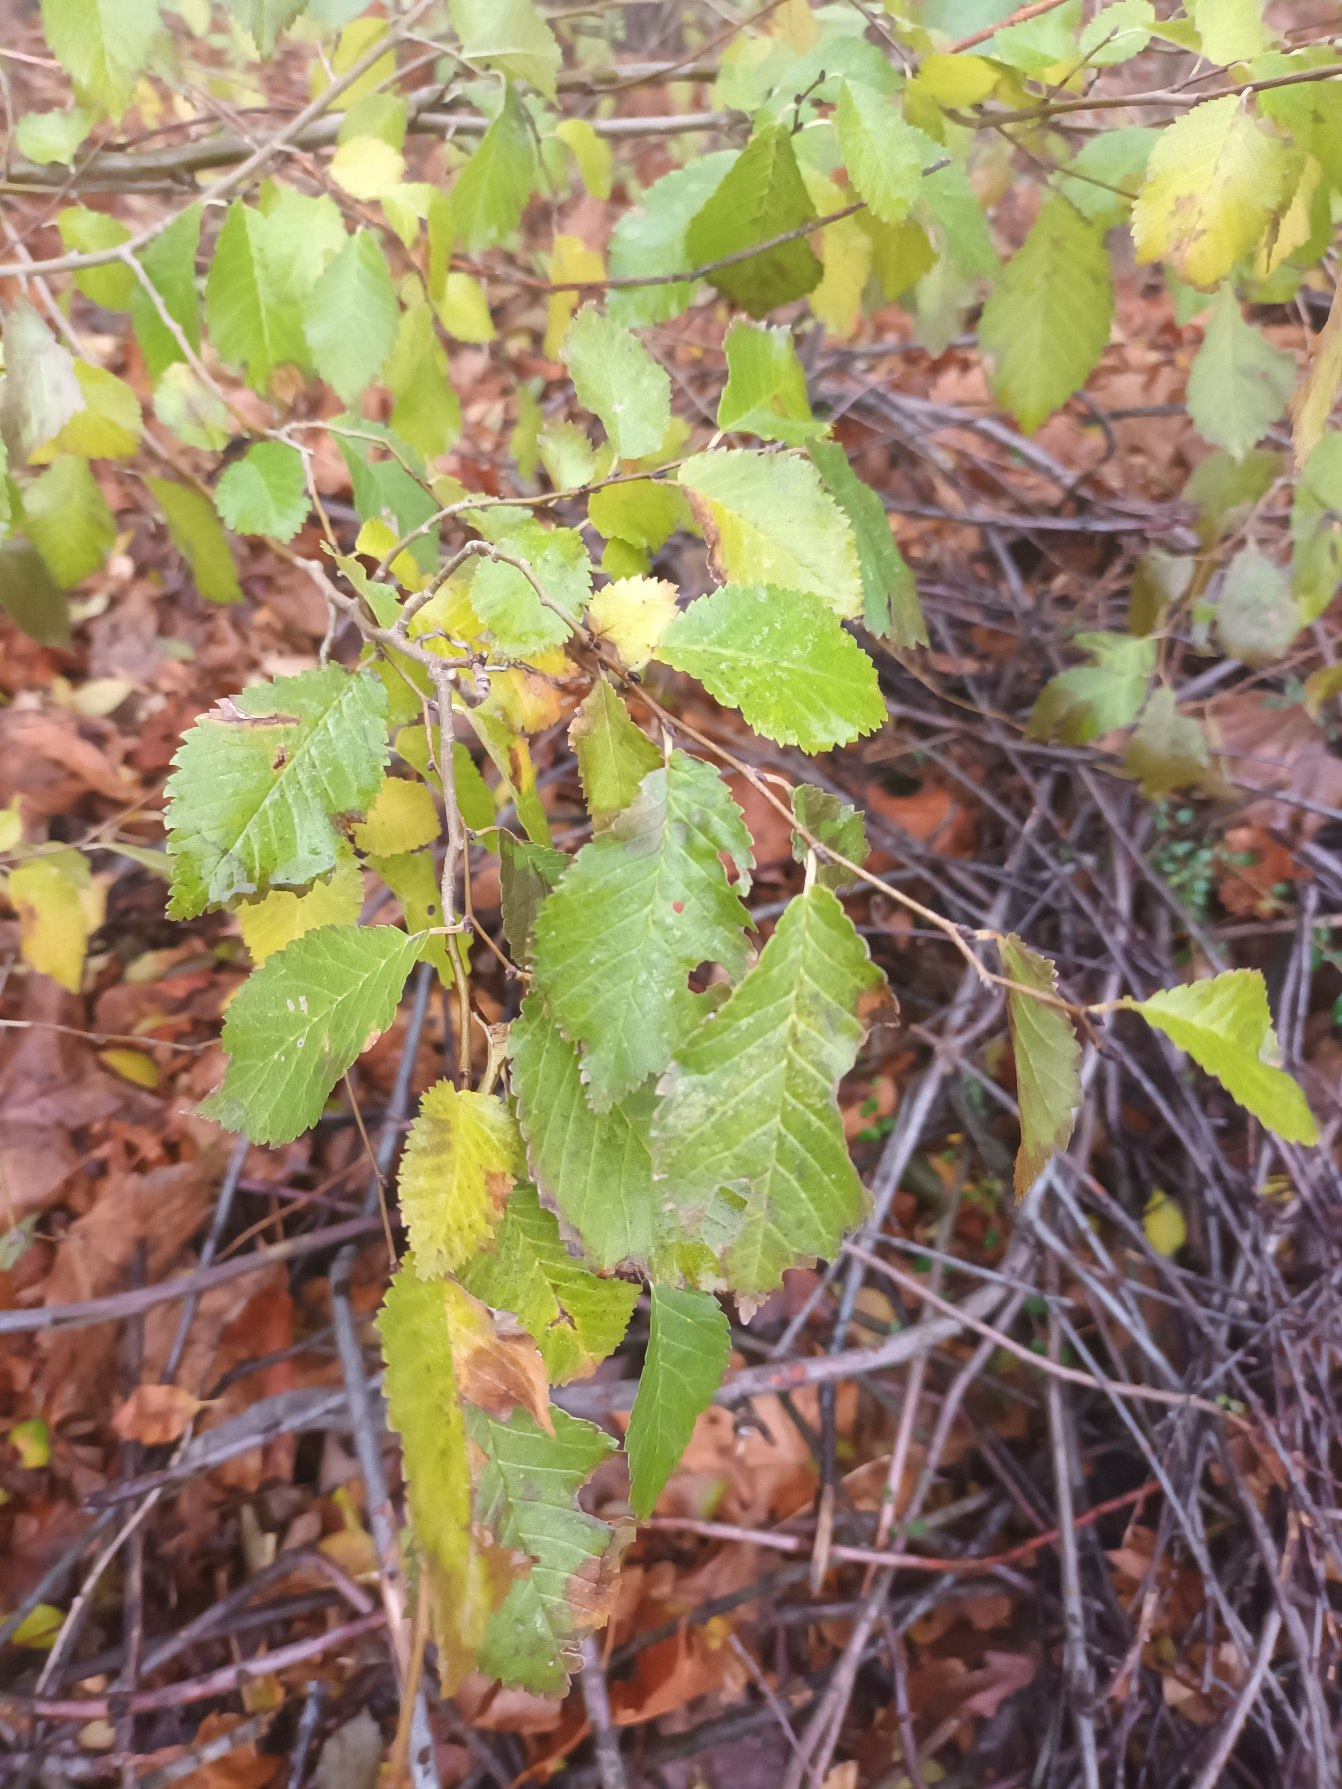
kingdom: Plantae
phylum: Tracheophyta
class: Magnoliopsida
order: Rosales
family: Ulmaceae
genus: Ulmus
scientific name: Ulmus glabra
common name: Skov-elm/storbladet elm
